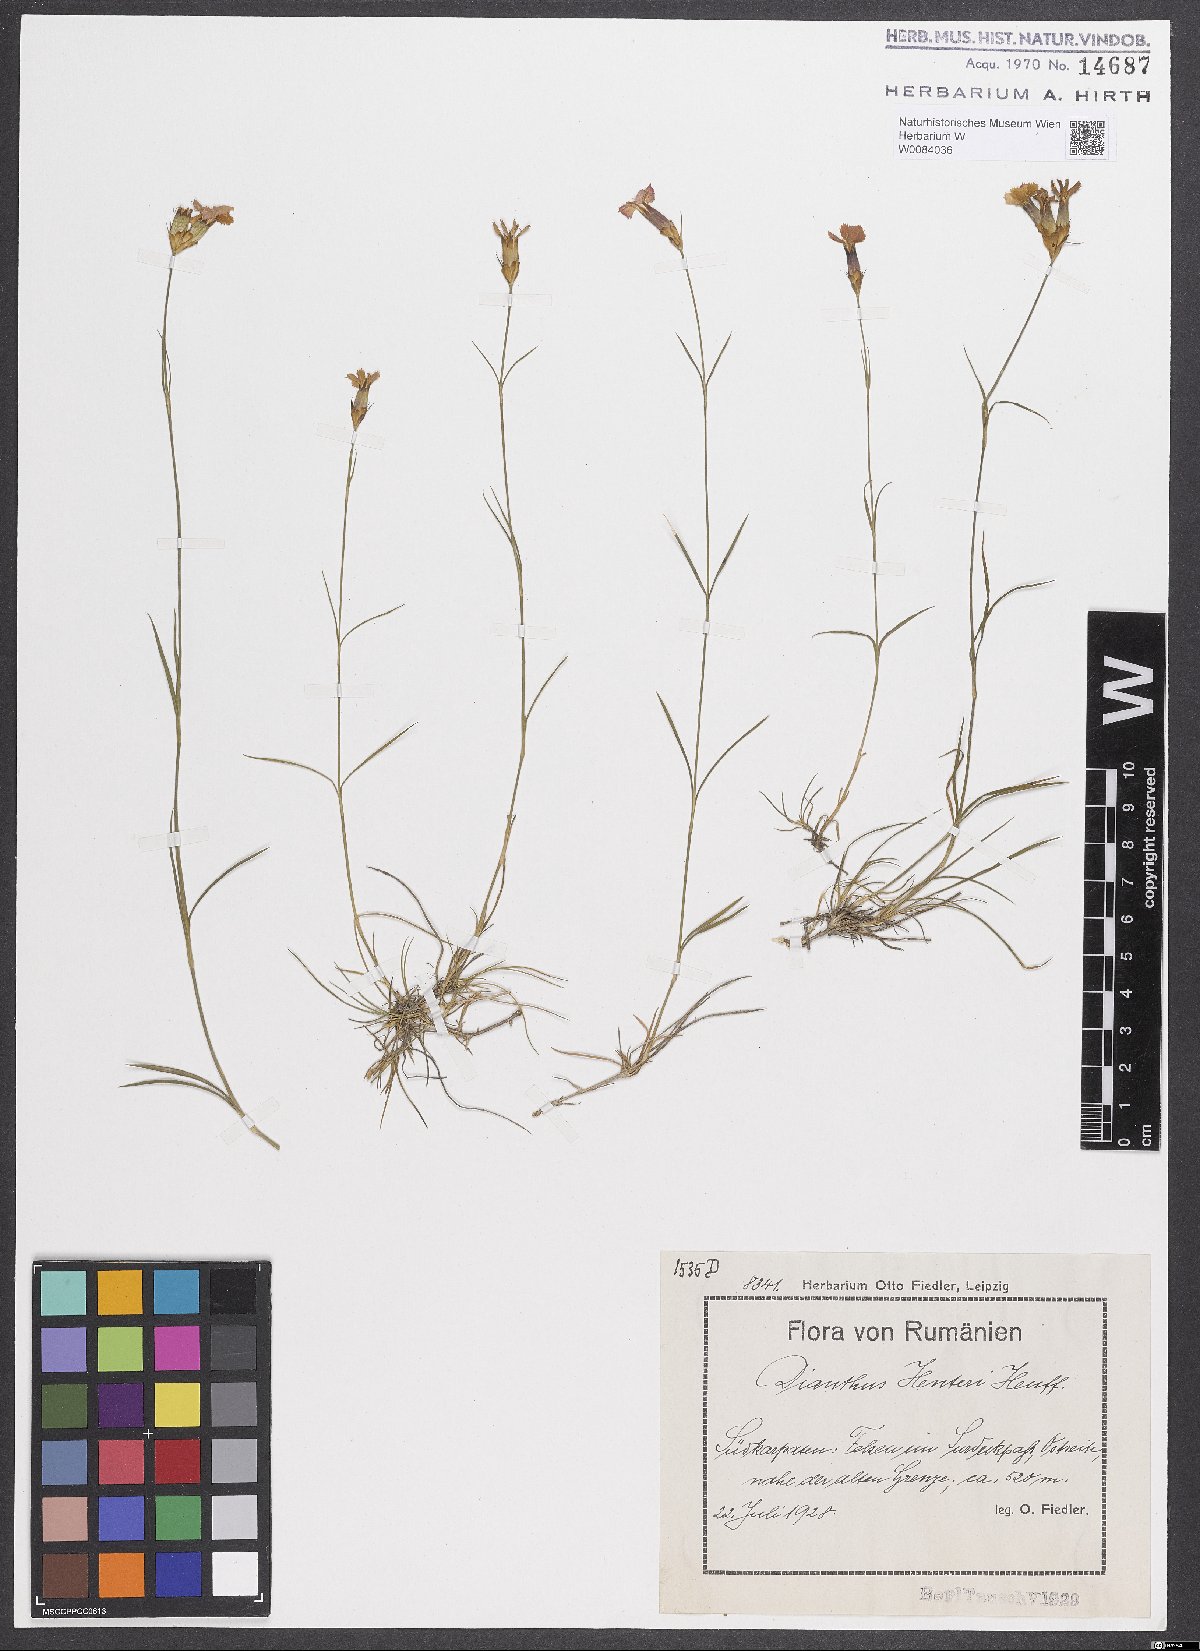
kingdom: Plantae
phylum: Tracheophyta
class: Magnoliopsida
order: Caryophyllales
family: Caryophyllaceae
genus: Dianthus
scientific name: Dianthus henteri
